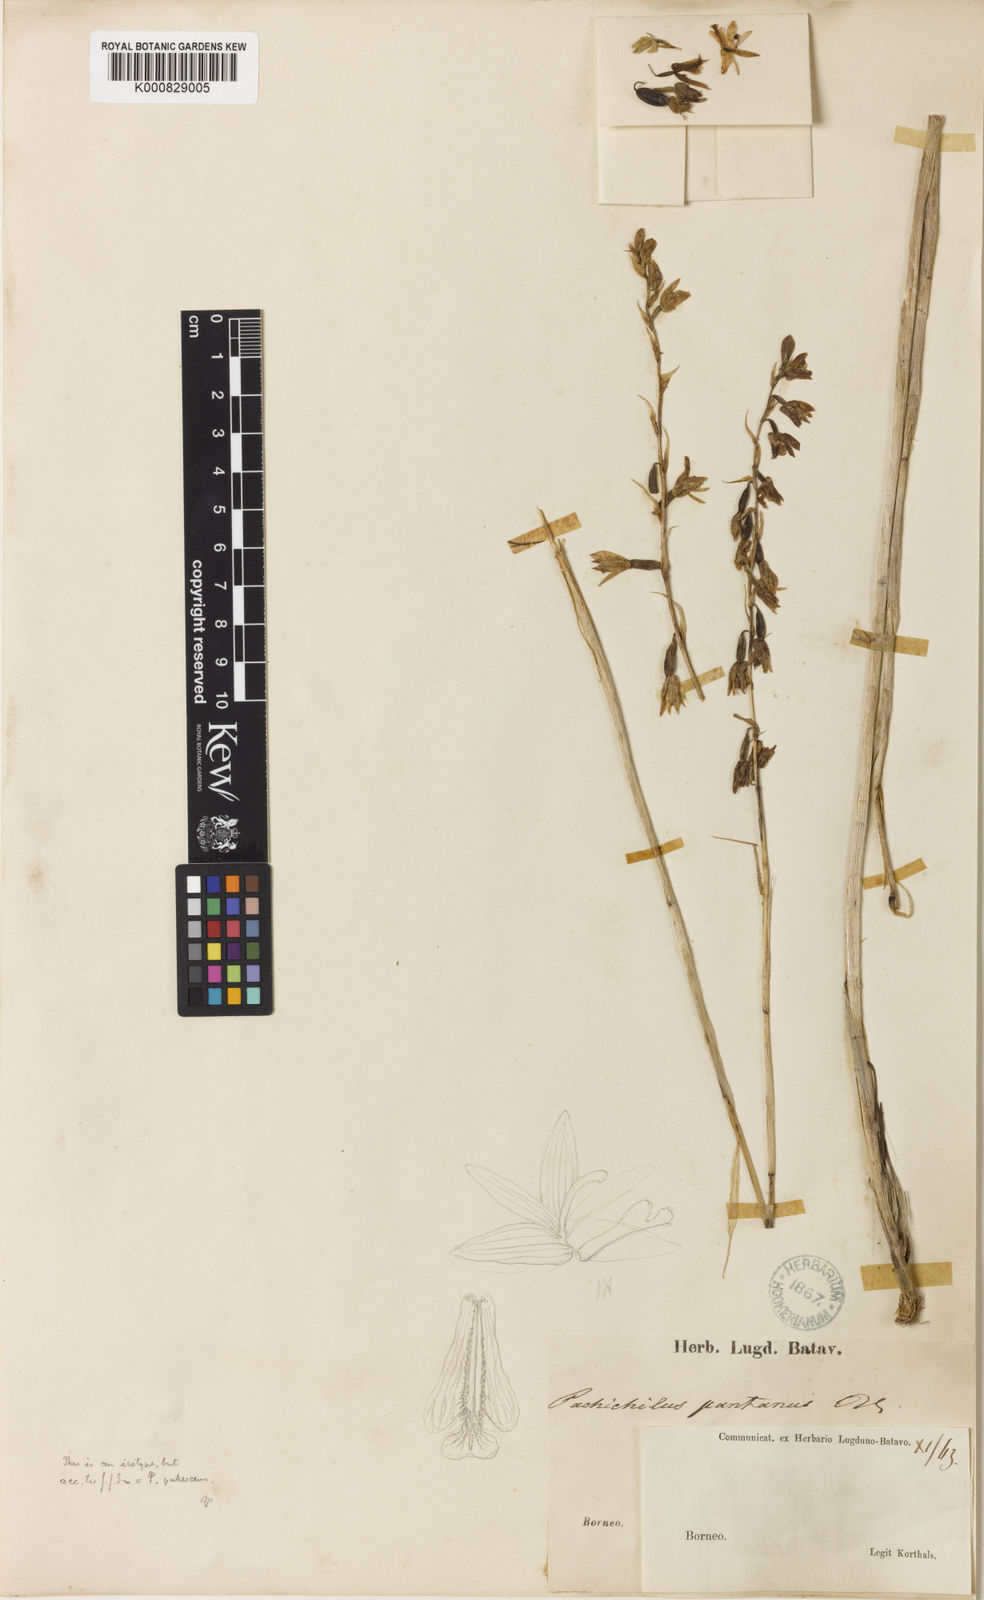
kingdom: Plantae
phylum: Tracheophyta
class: Liliopsida
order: Asparagales
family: Orchidaceae
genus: Pachystoma
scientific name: Pachystoma pubescens
